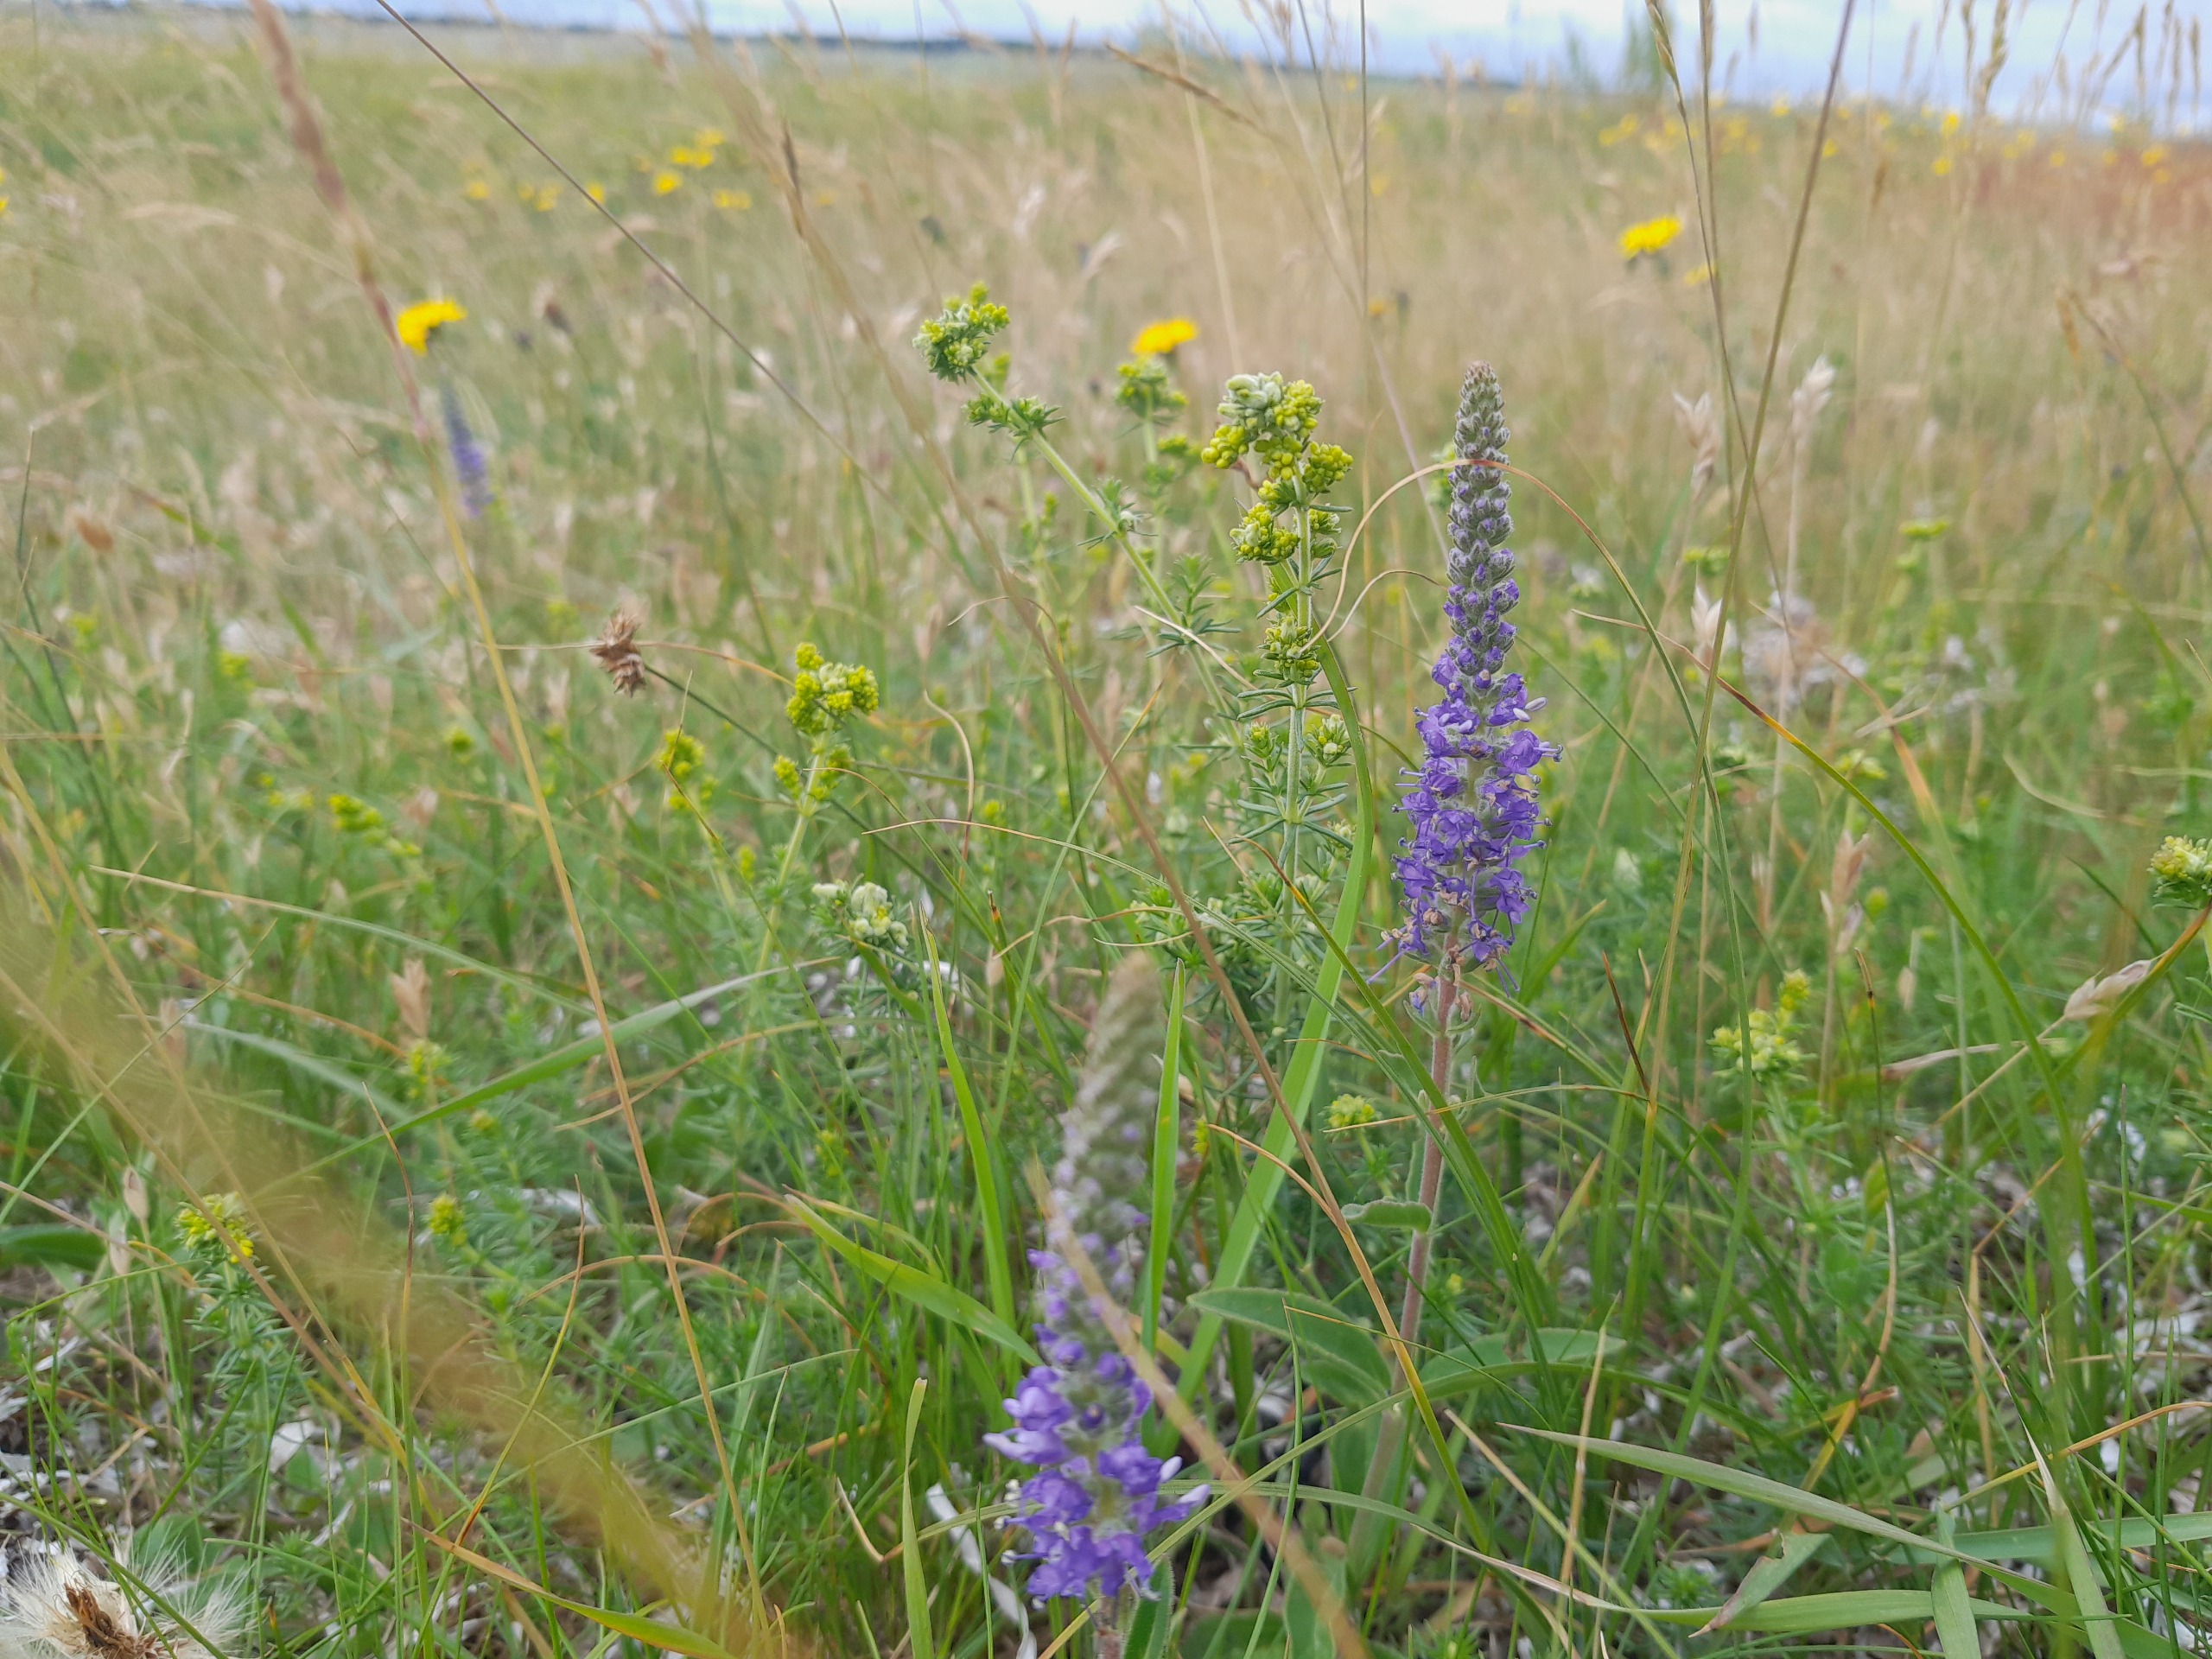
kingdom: Plantae
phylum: Tracheophyta
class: Magnoliopsida
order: Lamiales
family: Plantaginaceae
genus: Veronica
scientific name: Veronica spicata
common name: Aks-ærenpris
